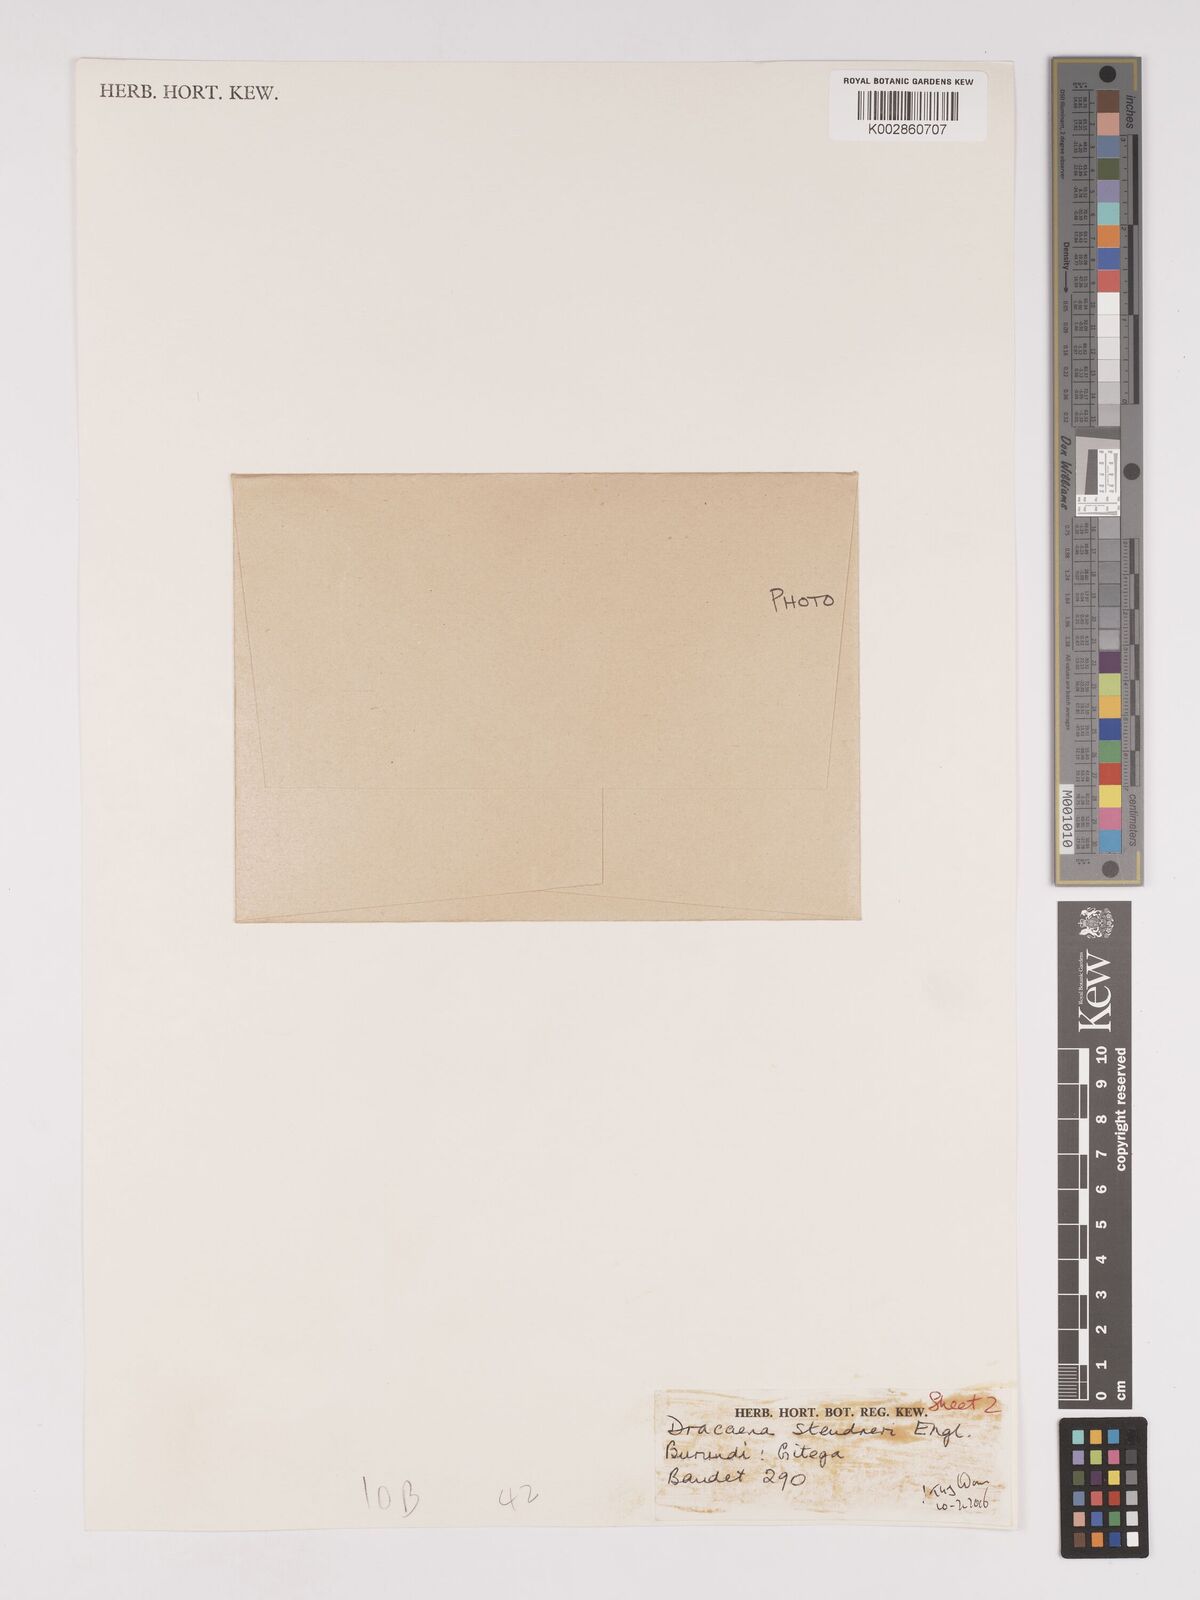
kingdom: Plantae
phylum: Tracheophyta
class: Liliopsida
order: Asparagales
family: Asparagaceae
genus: Dracaena
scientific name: Dracaena steudneri
